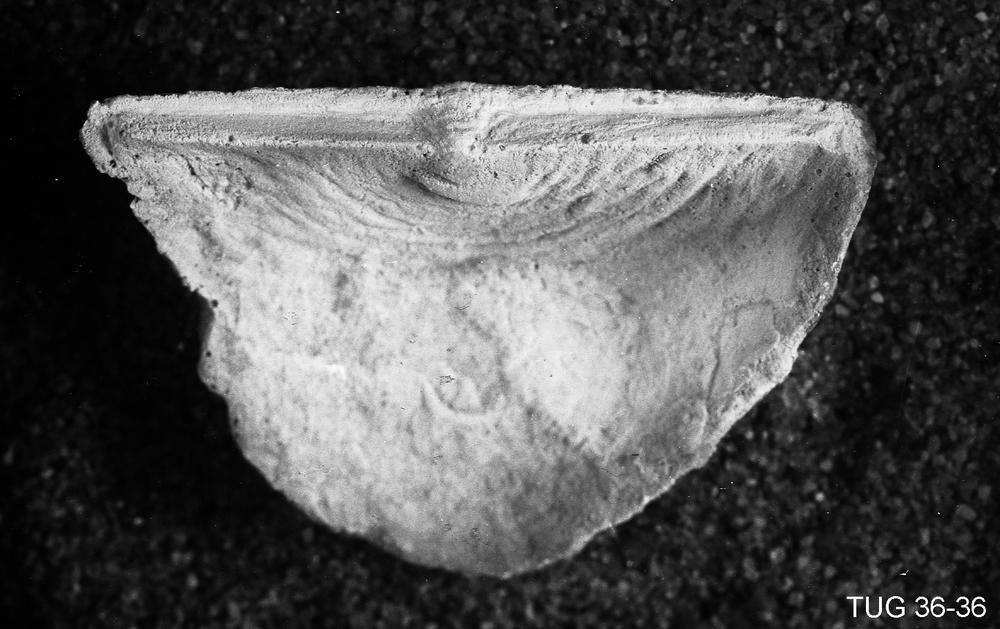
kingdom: Animalia
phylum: Brachiopoda
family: Strophomenidae
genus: Luhaia
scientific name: Luhaia vardi
